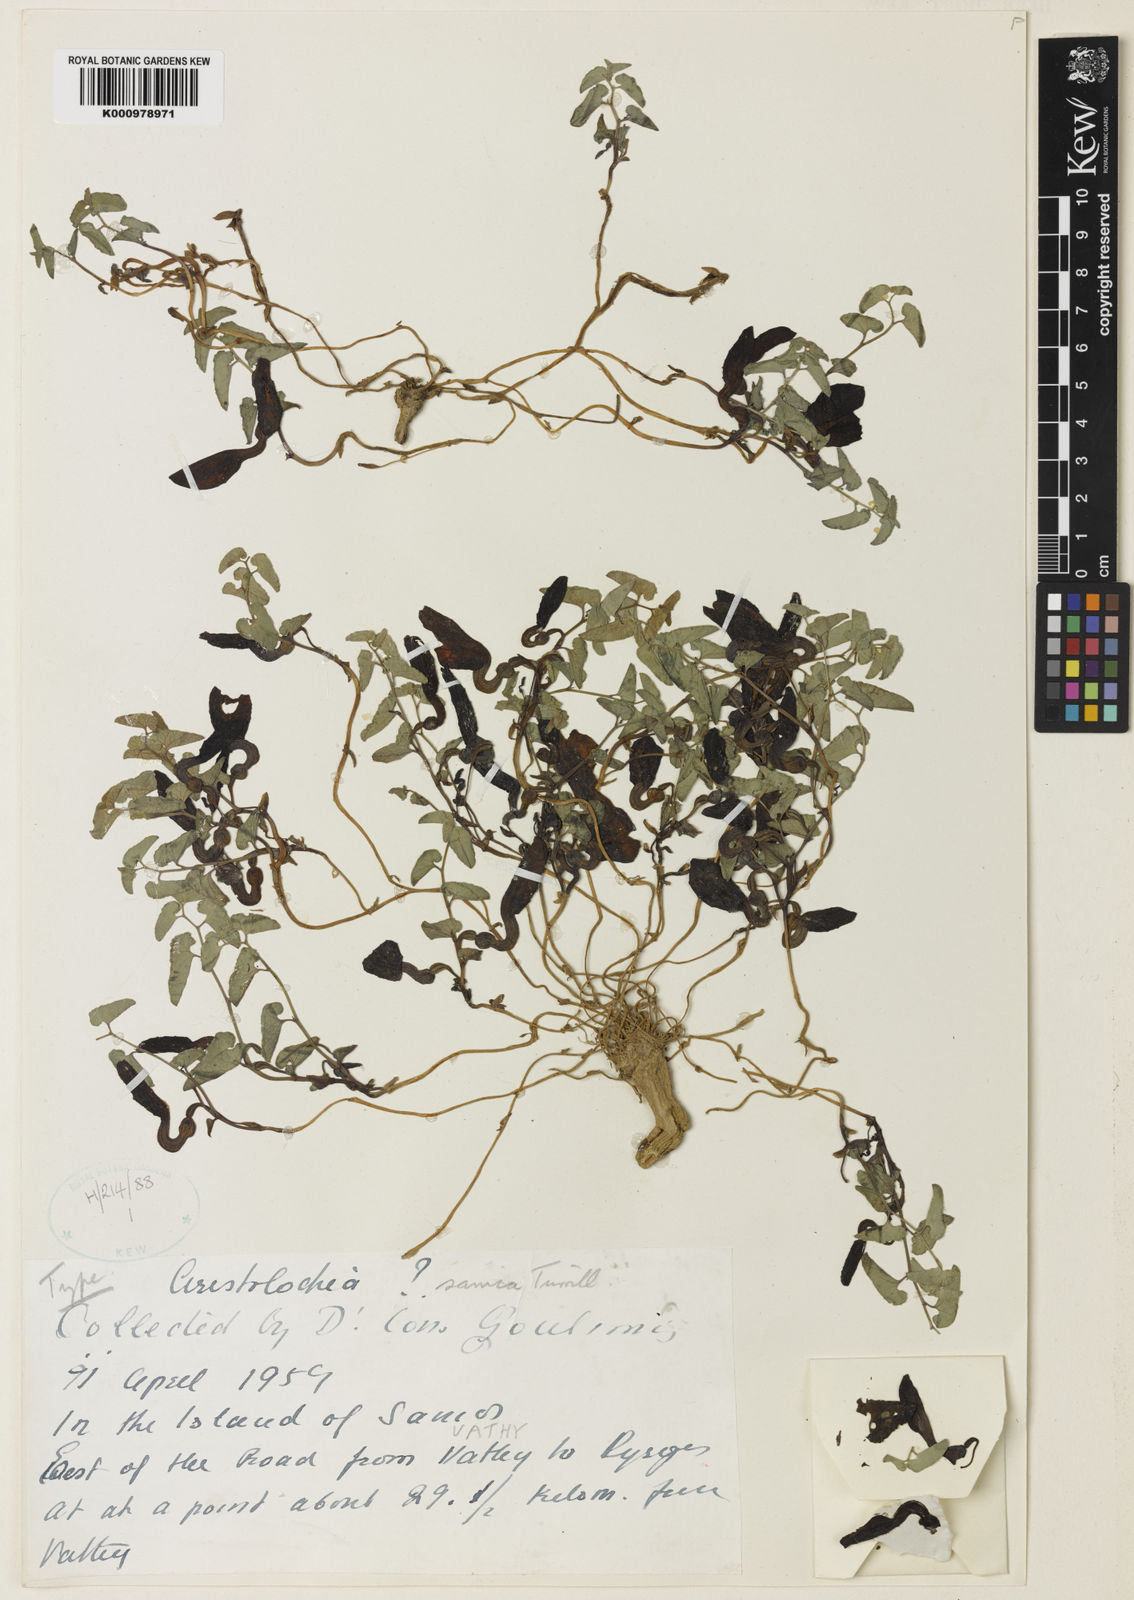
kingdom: Plantae
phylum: Tracheophyta
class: Magnoliopsida
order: Piperales
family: Aristolochiaceae
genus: Aristolochia
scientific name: Aristolochia incisa
